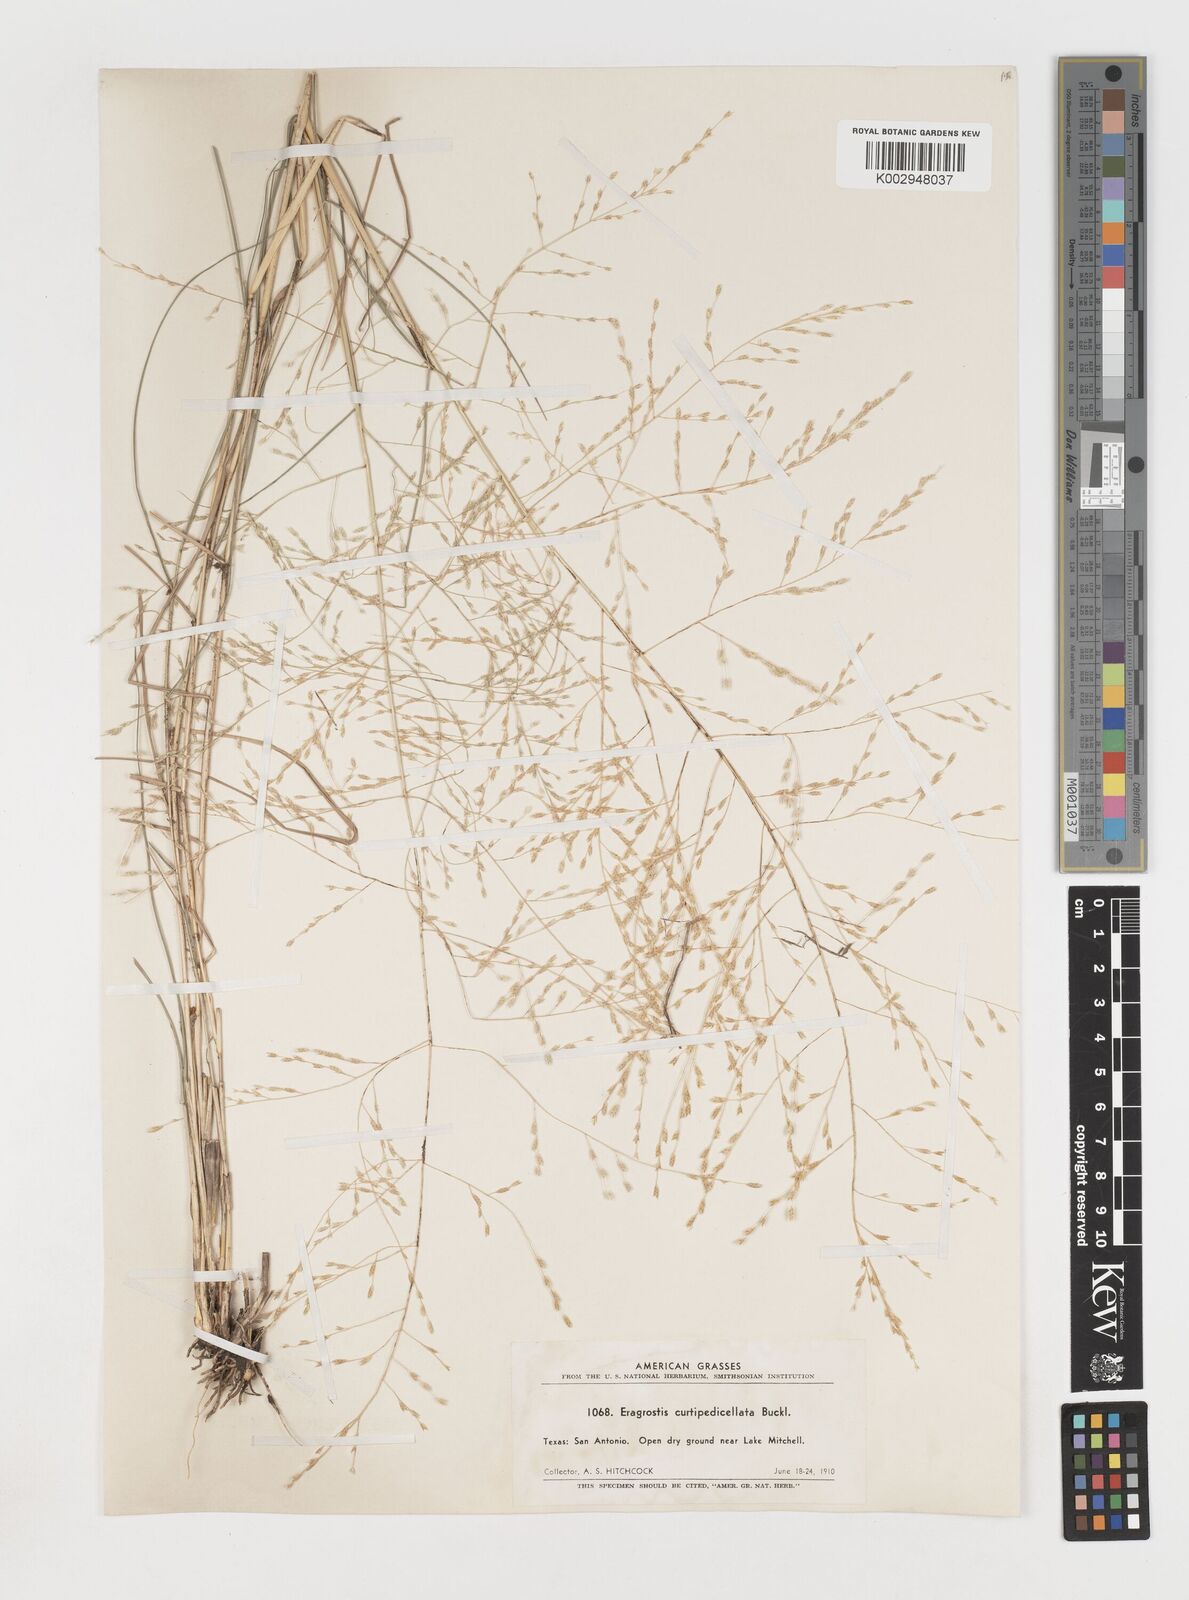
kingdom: Plantae
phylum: Tracheophyta
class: Liliopsida
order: Poales
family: Poaceae
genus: Eragrostis
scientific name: Eragrostis curtipedicellata
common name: Gummy love grass
